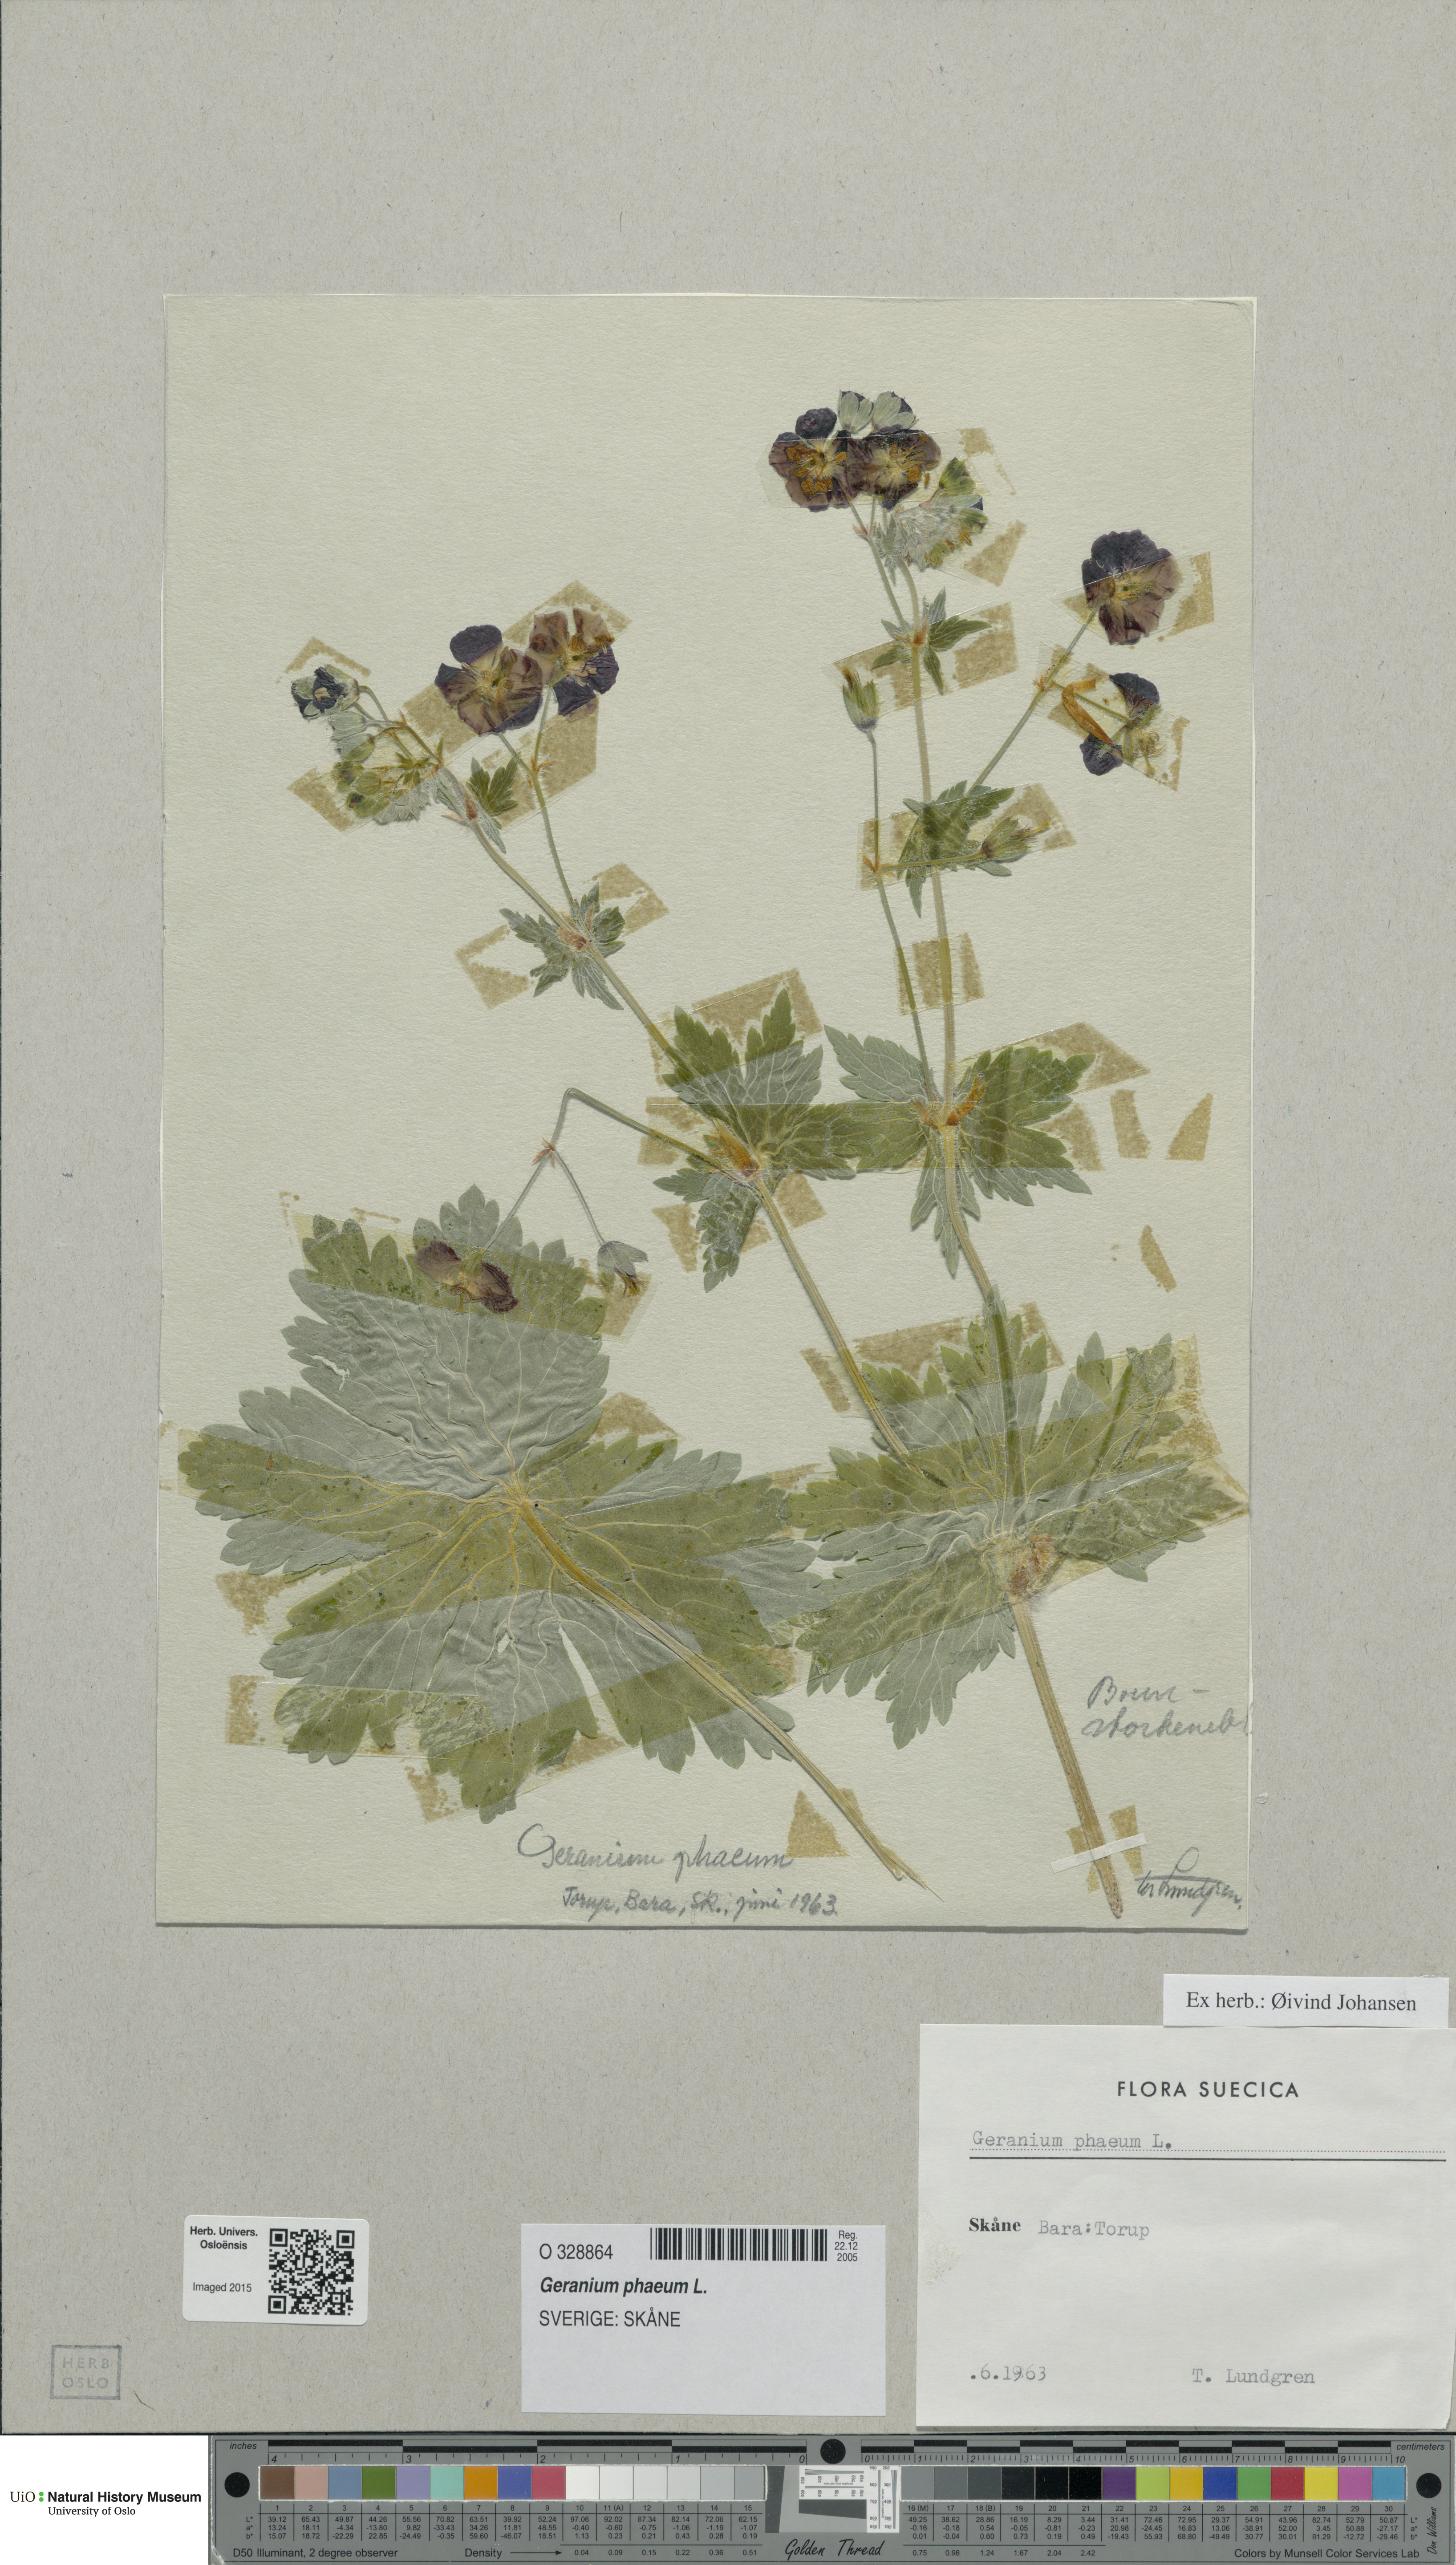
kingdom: Plantae
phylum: Tracheophyta
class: Magnoliopsida
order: Geraniales
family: Geraniaceae
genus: Geranium
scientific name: Geranium phaeum
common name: Dusky crane's-bill
